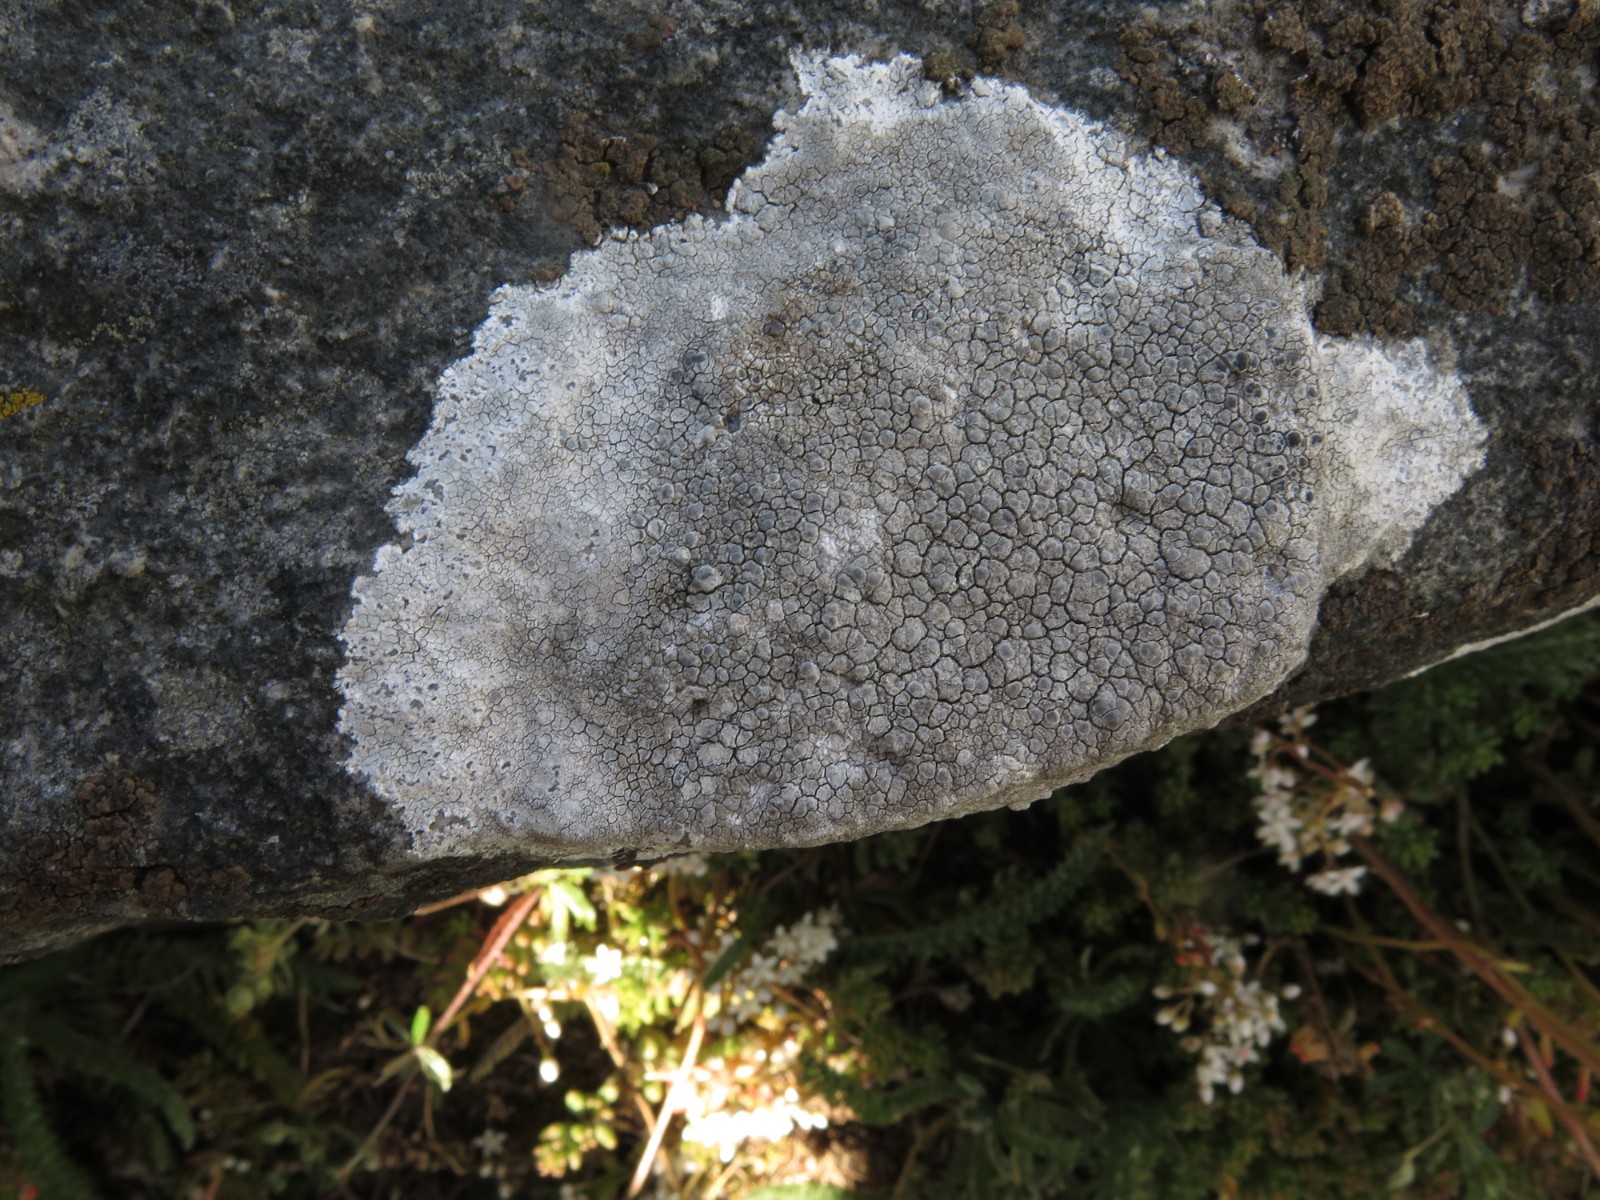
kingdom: Fungi
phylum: Ascomycota
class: Lecanoromycetes
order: Lecanorales
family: Lecanoraceae
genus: Glaucomaria
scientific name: Glaucomaria rupicola
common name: stengærde-kantskivelav
